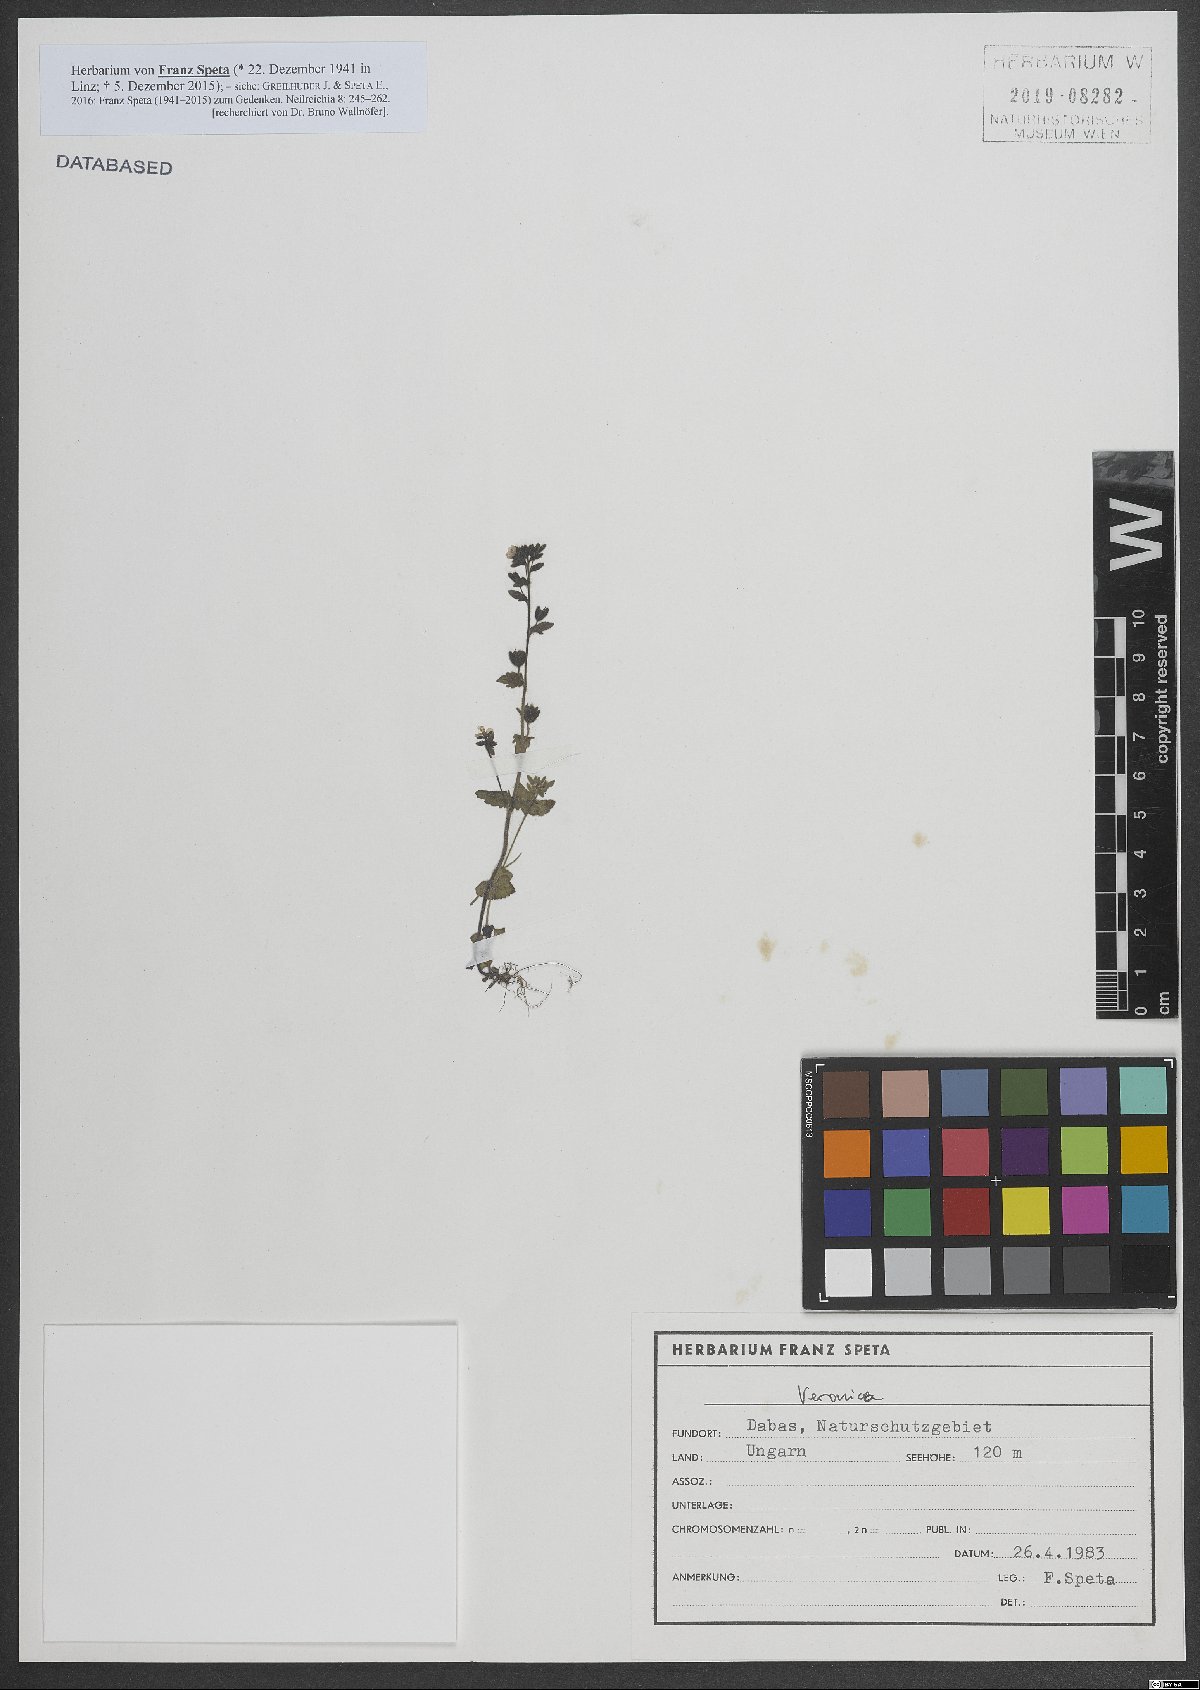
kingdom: Plantae
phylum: Tracheophyta
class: Magnoliopsida
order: Lamiales
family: Plantaginaceae
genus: Veronica
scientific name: Veronica
